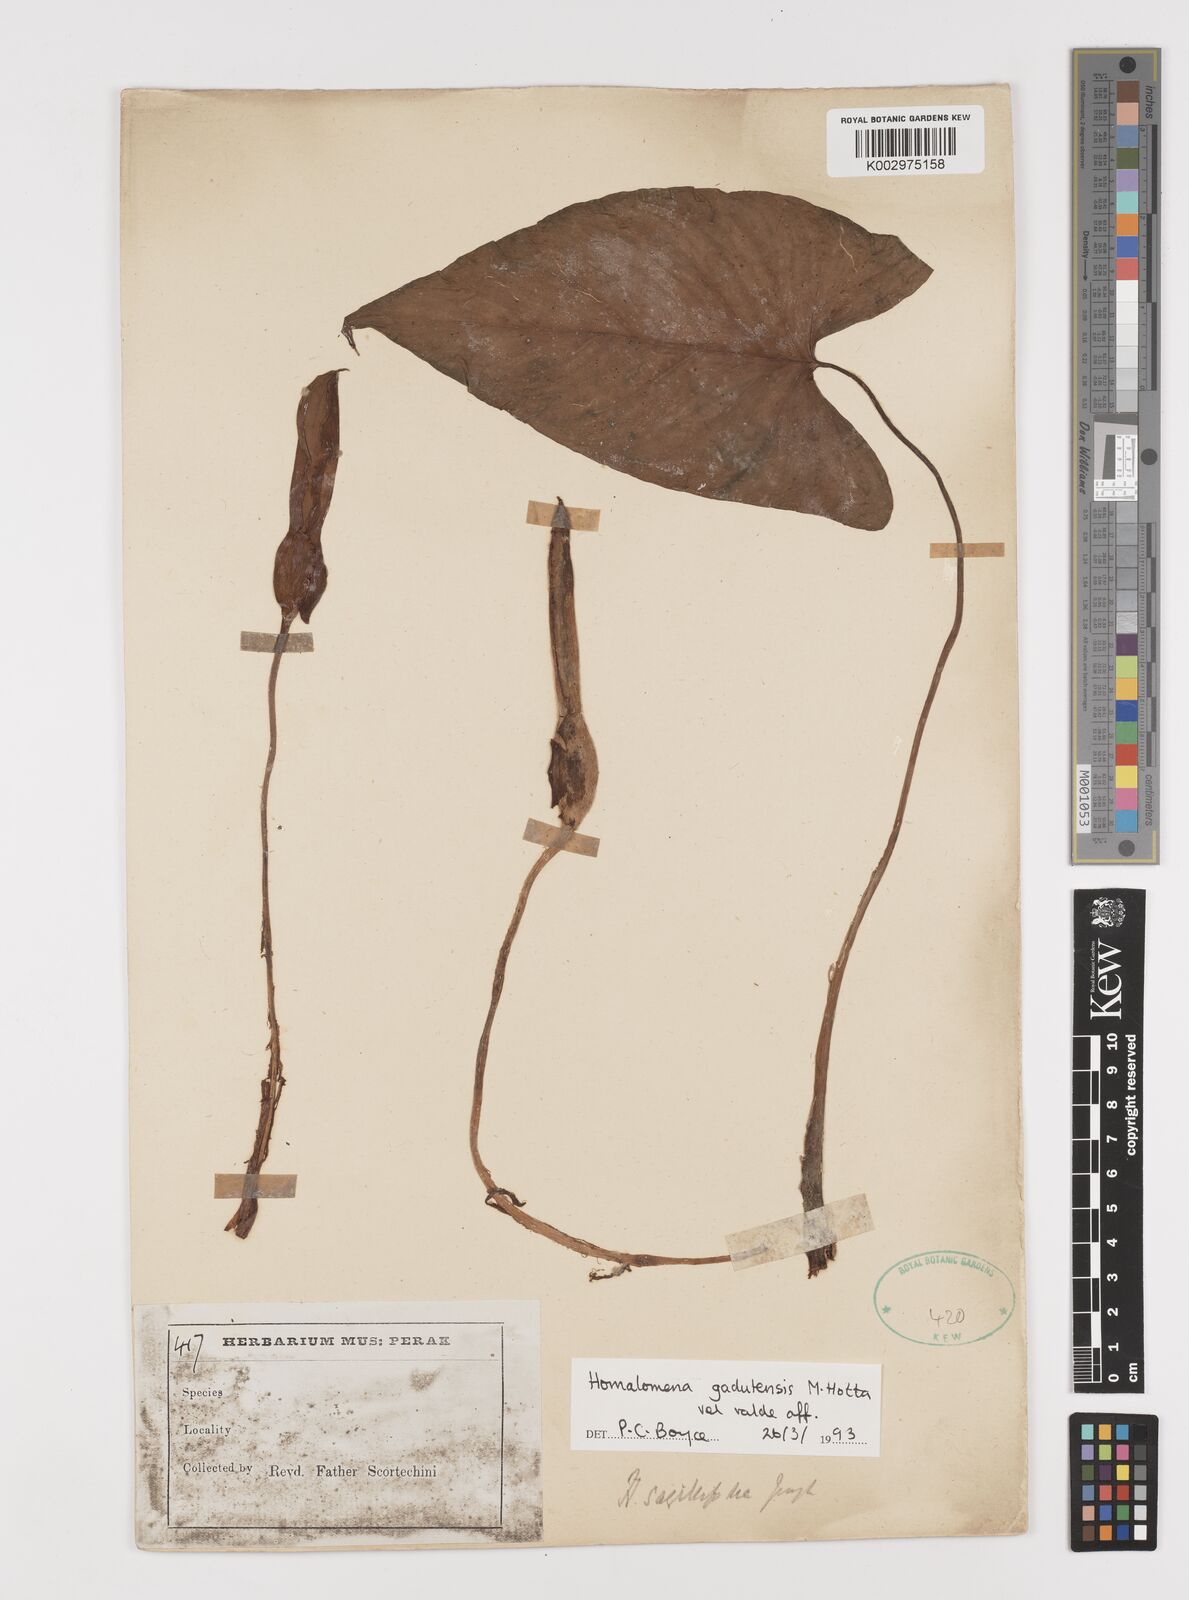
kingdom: Plantae
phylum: Tracheophyta
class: Liliopsida
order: Alismatales
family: Araceae
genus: Homalomena
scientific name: Homalomena gadutensis
